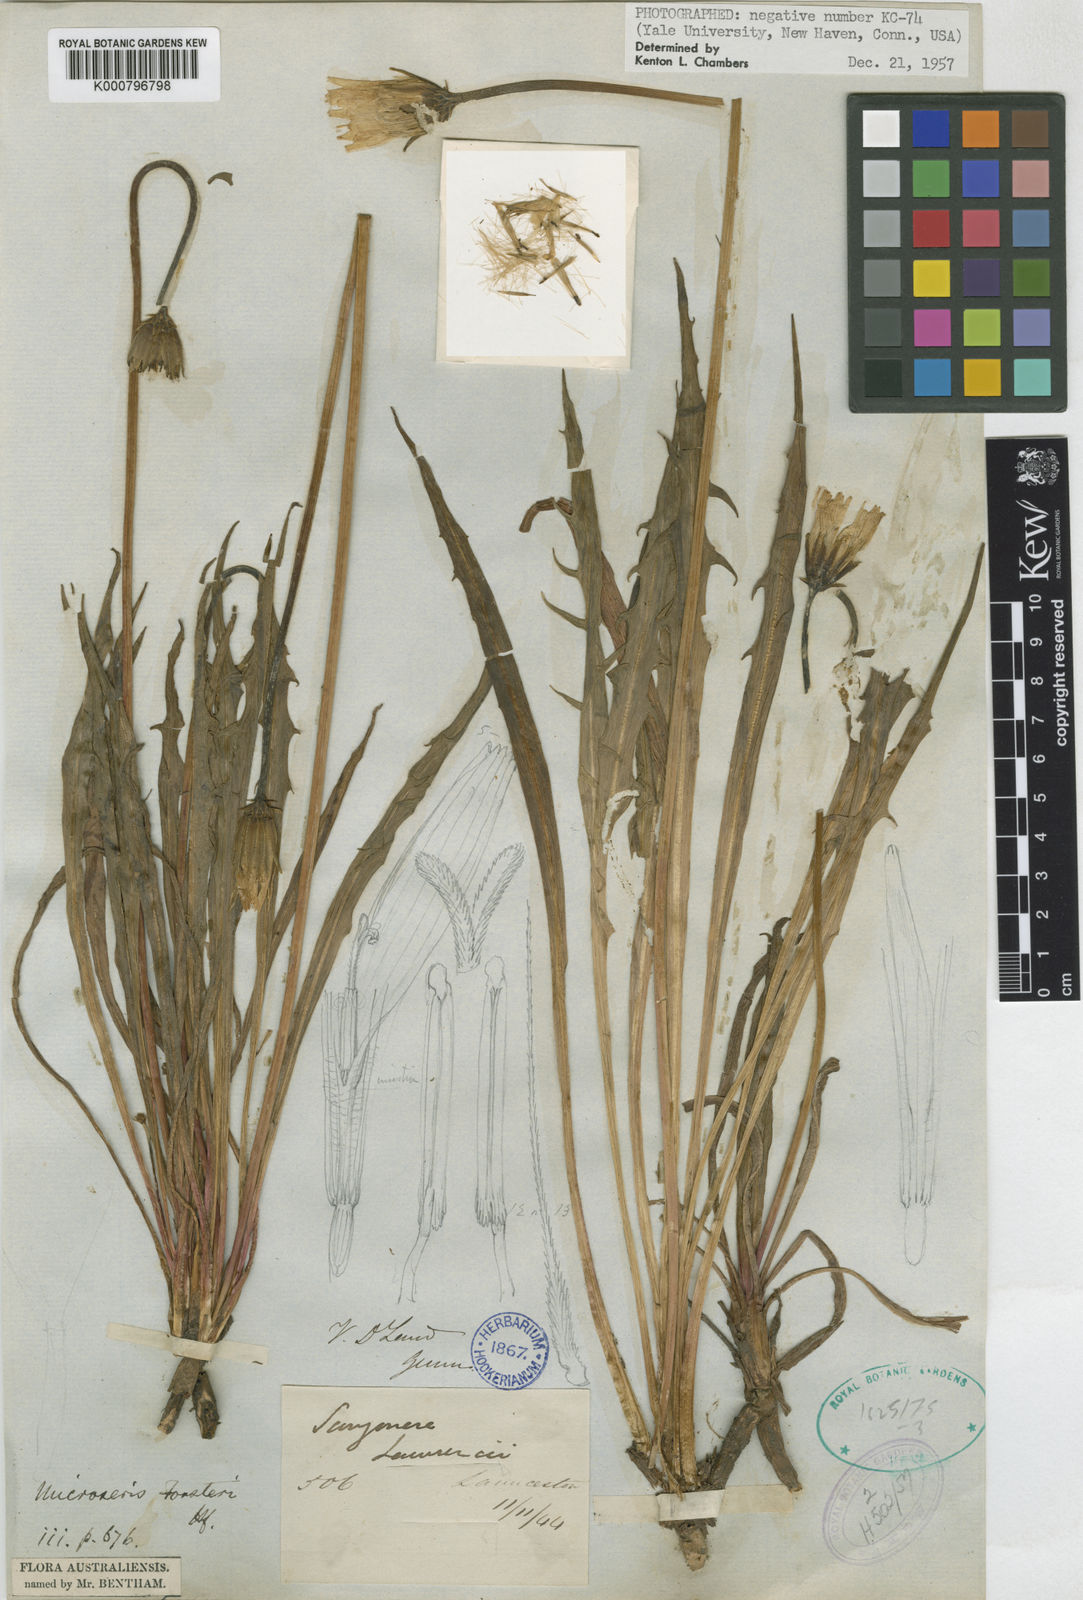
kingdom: Plantae
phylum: Tracheophyta
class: Magnoliopsida
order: Asterales
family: Asteraceae
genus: Microseris
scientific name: Microseris scapigera
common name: Yam daisy
